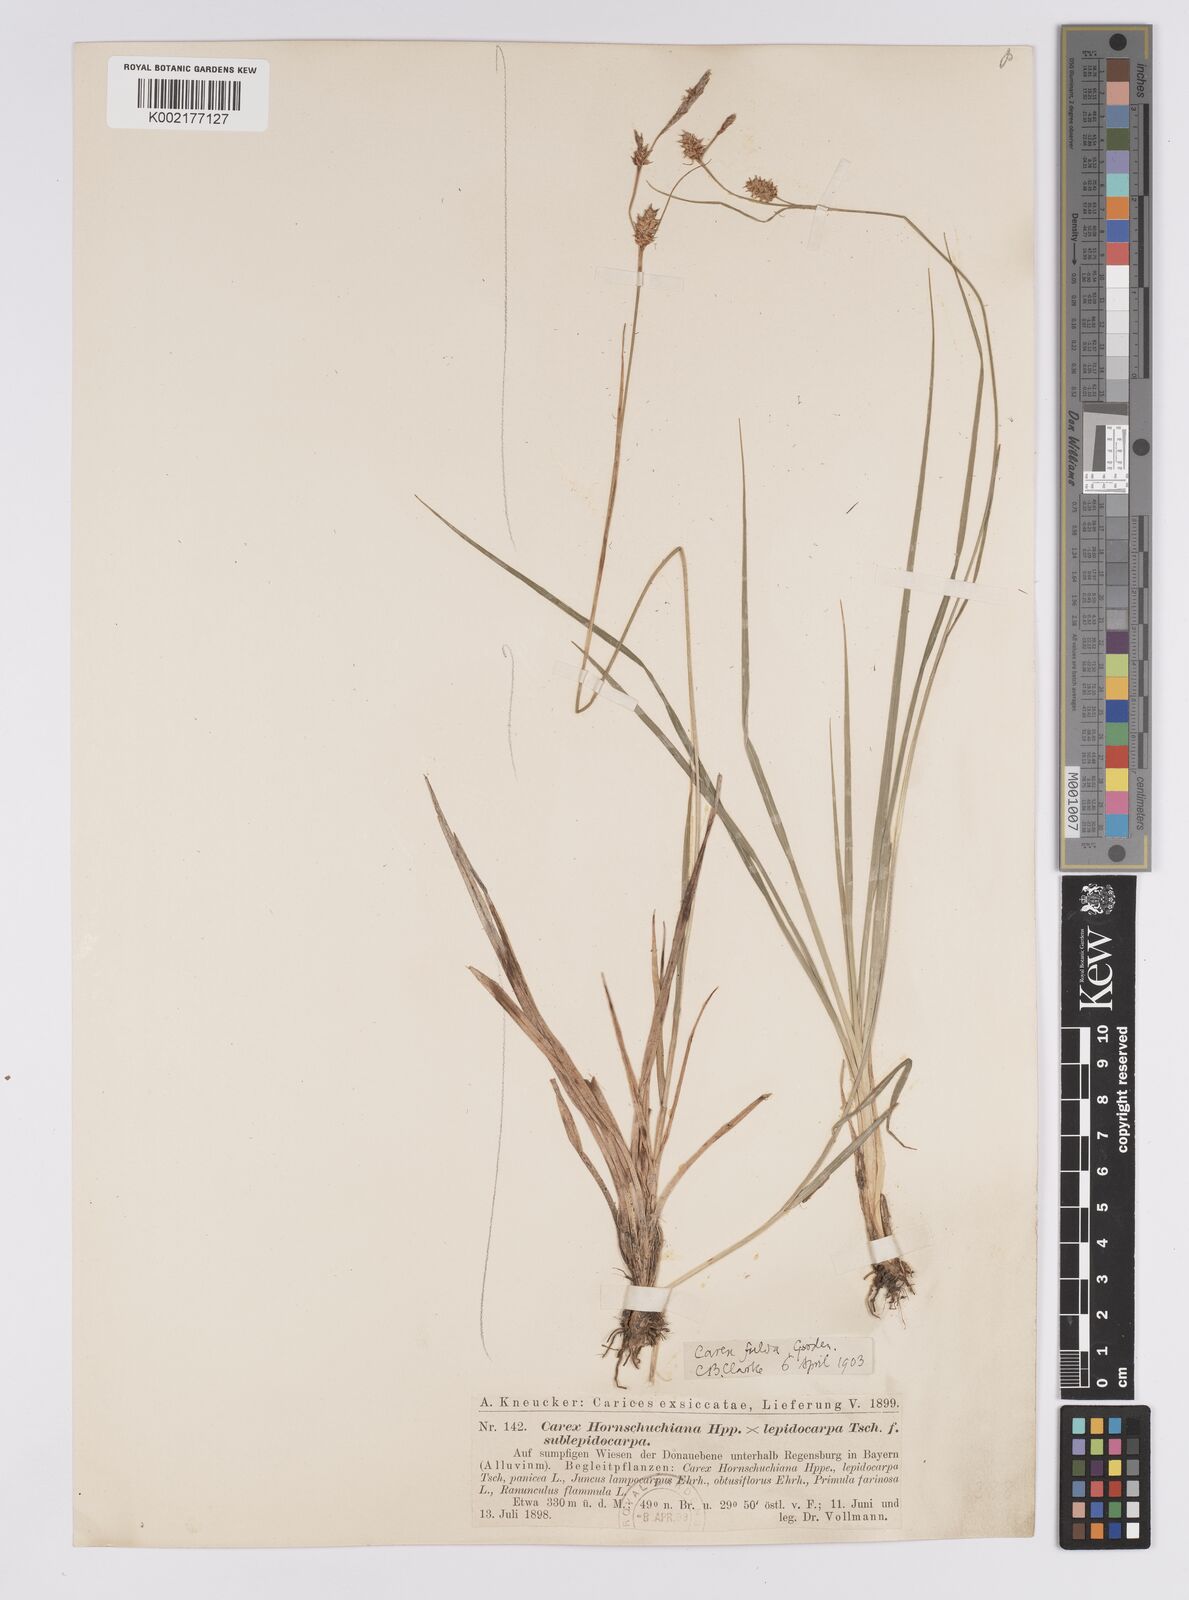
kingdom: Plantae
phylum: Tracheophyta
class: Liliopsida
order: Poales
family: Cyperaceae
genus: Carex
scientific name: Carex hostiana
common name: Tawny sedge
